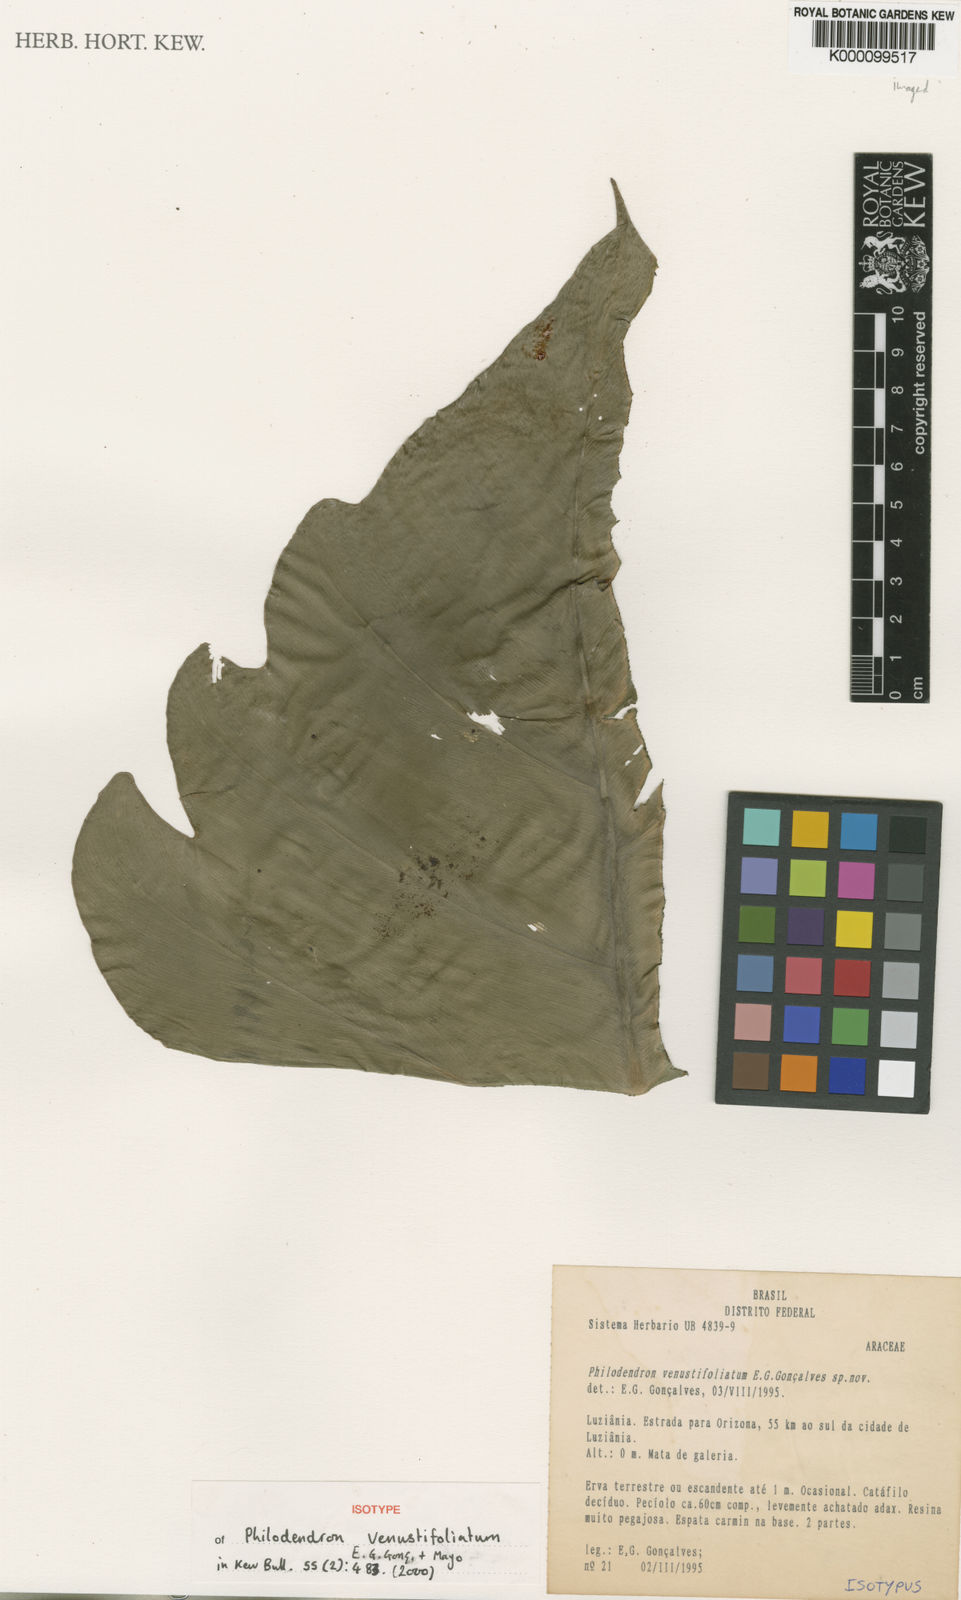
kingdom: Plantae
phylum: Tracheophyta
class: Liliopsida
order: Alismatales
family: Araceae
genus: Philodendron
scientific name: Philodendron
